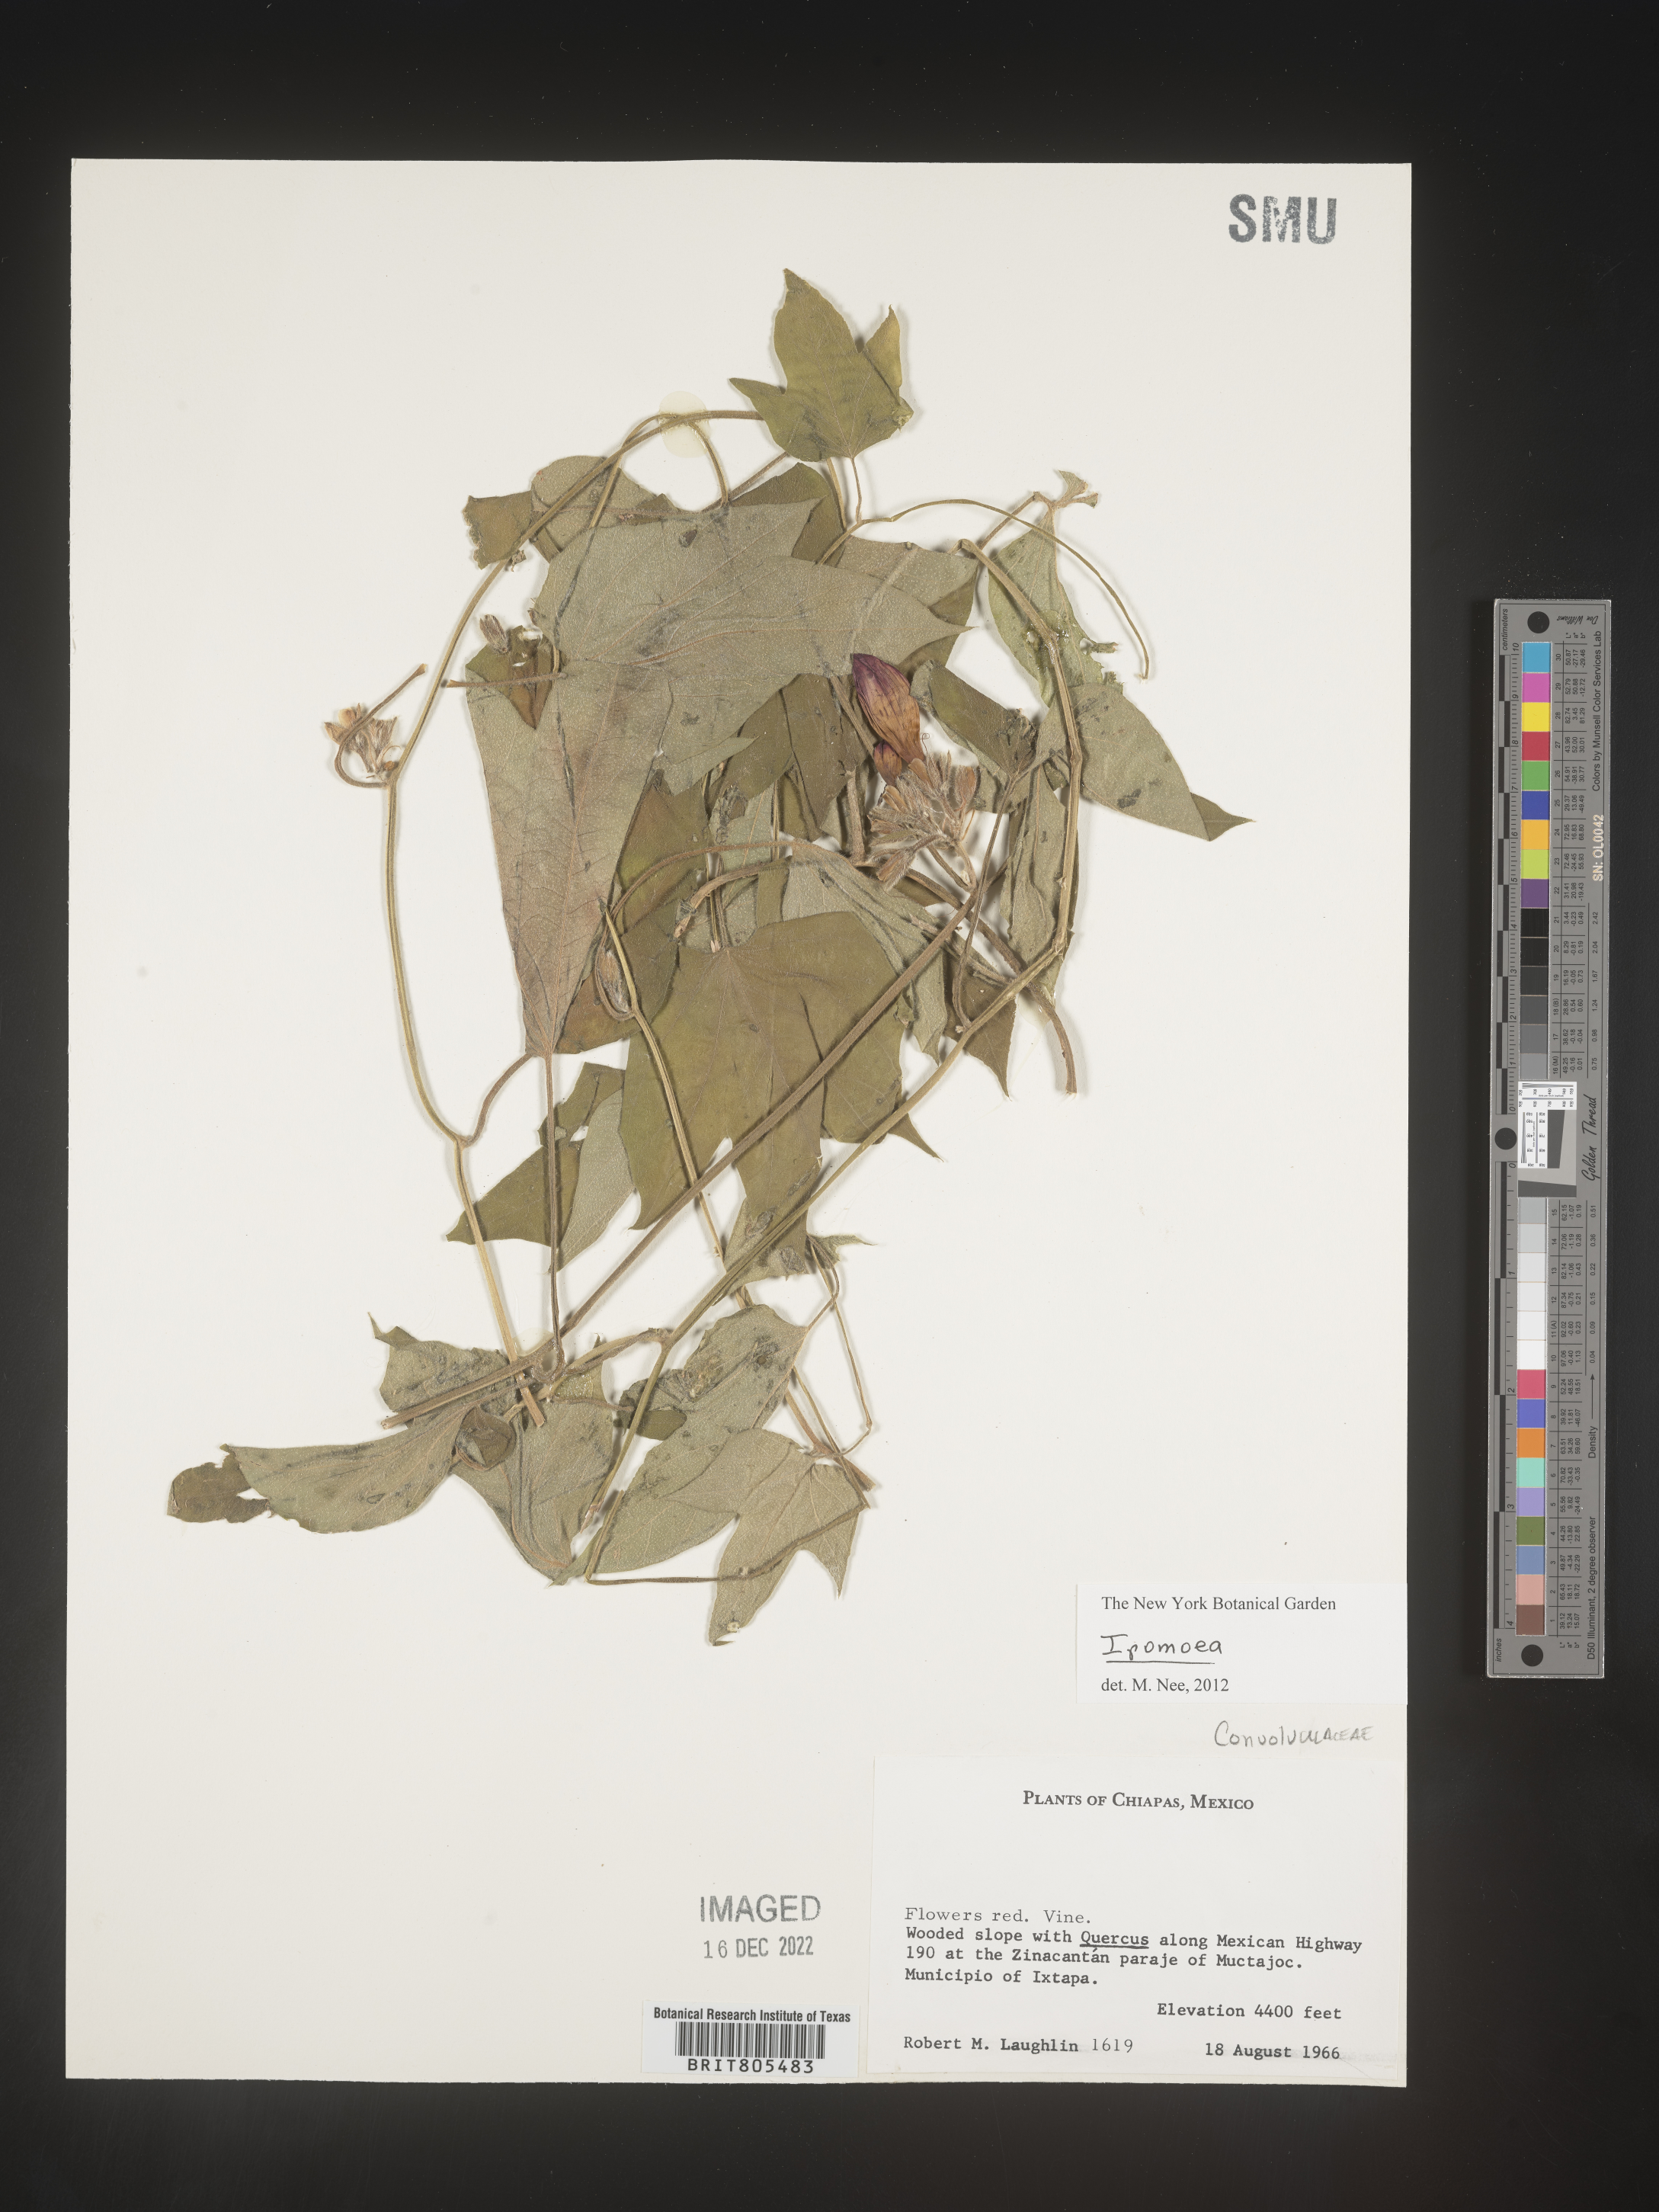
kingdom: Plantae
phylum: Tracheophyta
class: Magnoliopsida
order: Solanales
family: Convolvulaceae
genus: Ipomoea
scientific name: Ipomoea
